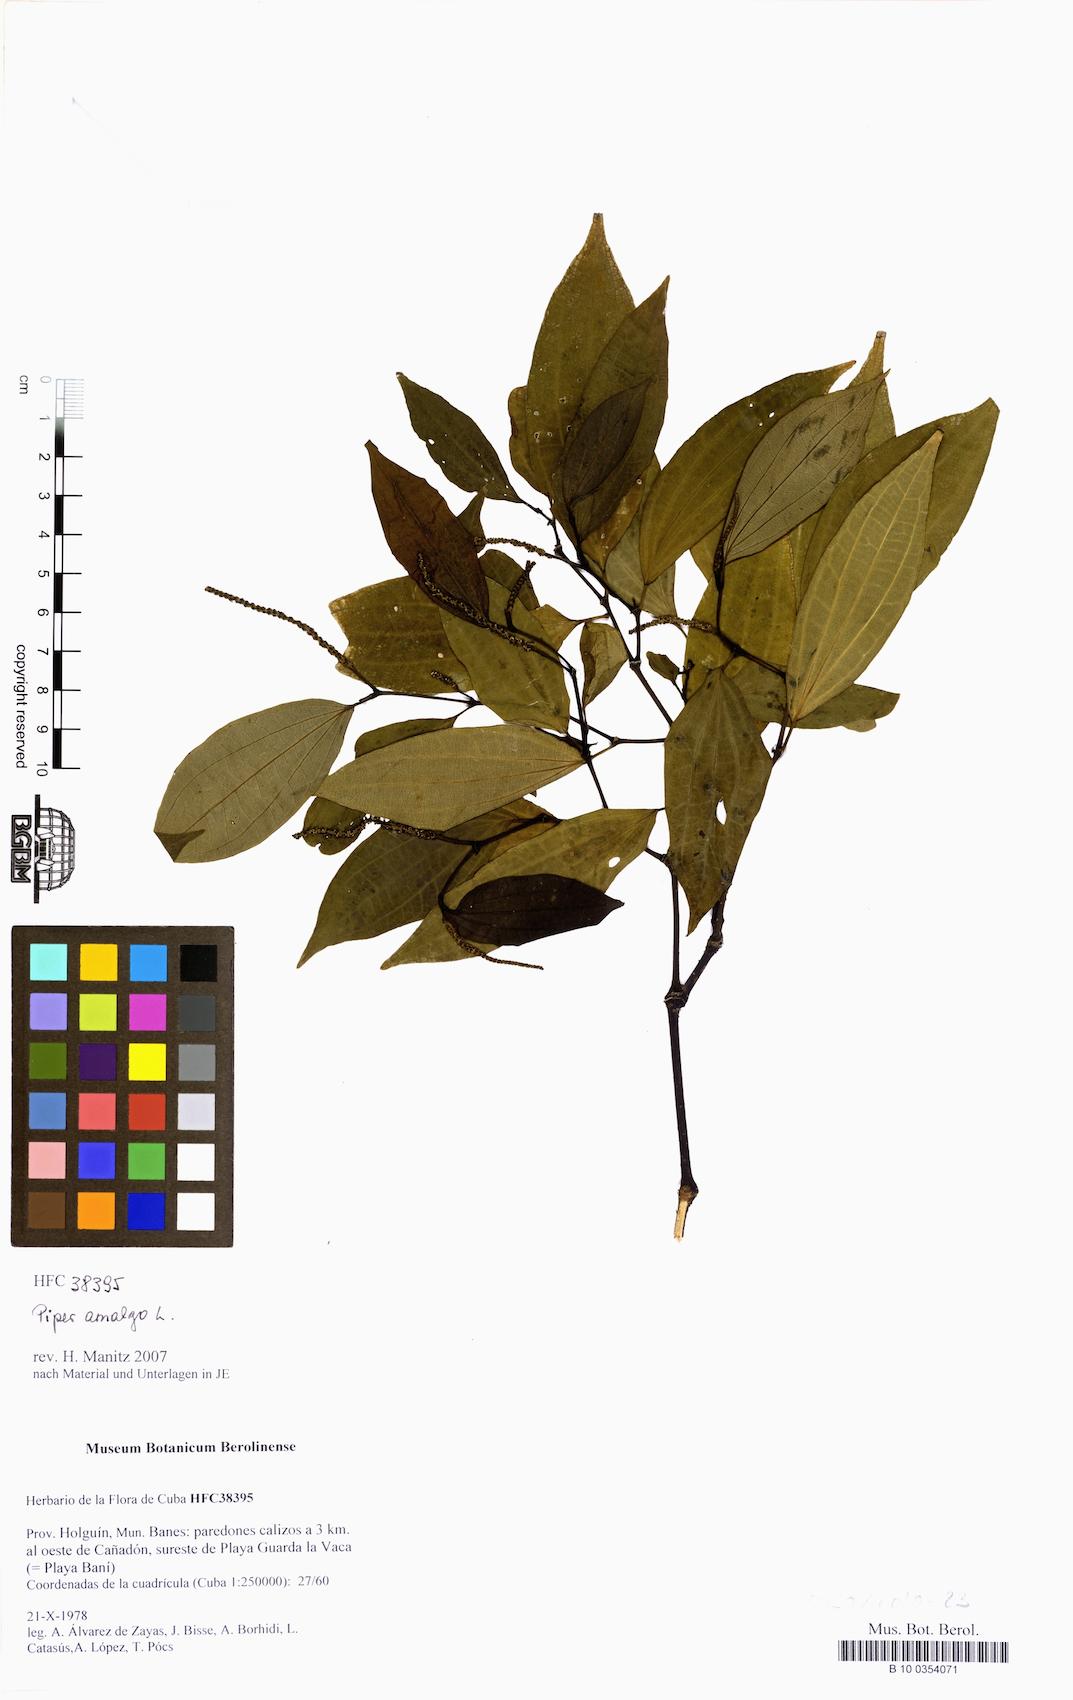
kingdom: Plantae
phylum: Tracheophyta
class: Magnoliopsida
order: Piperales
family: Piperaceae
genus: Piper
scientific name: Piper amalago
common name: Pepper-elder
